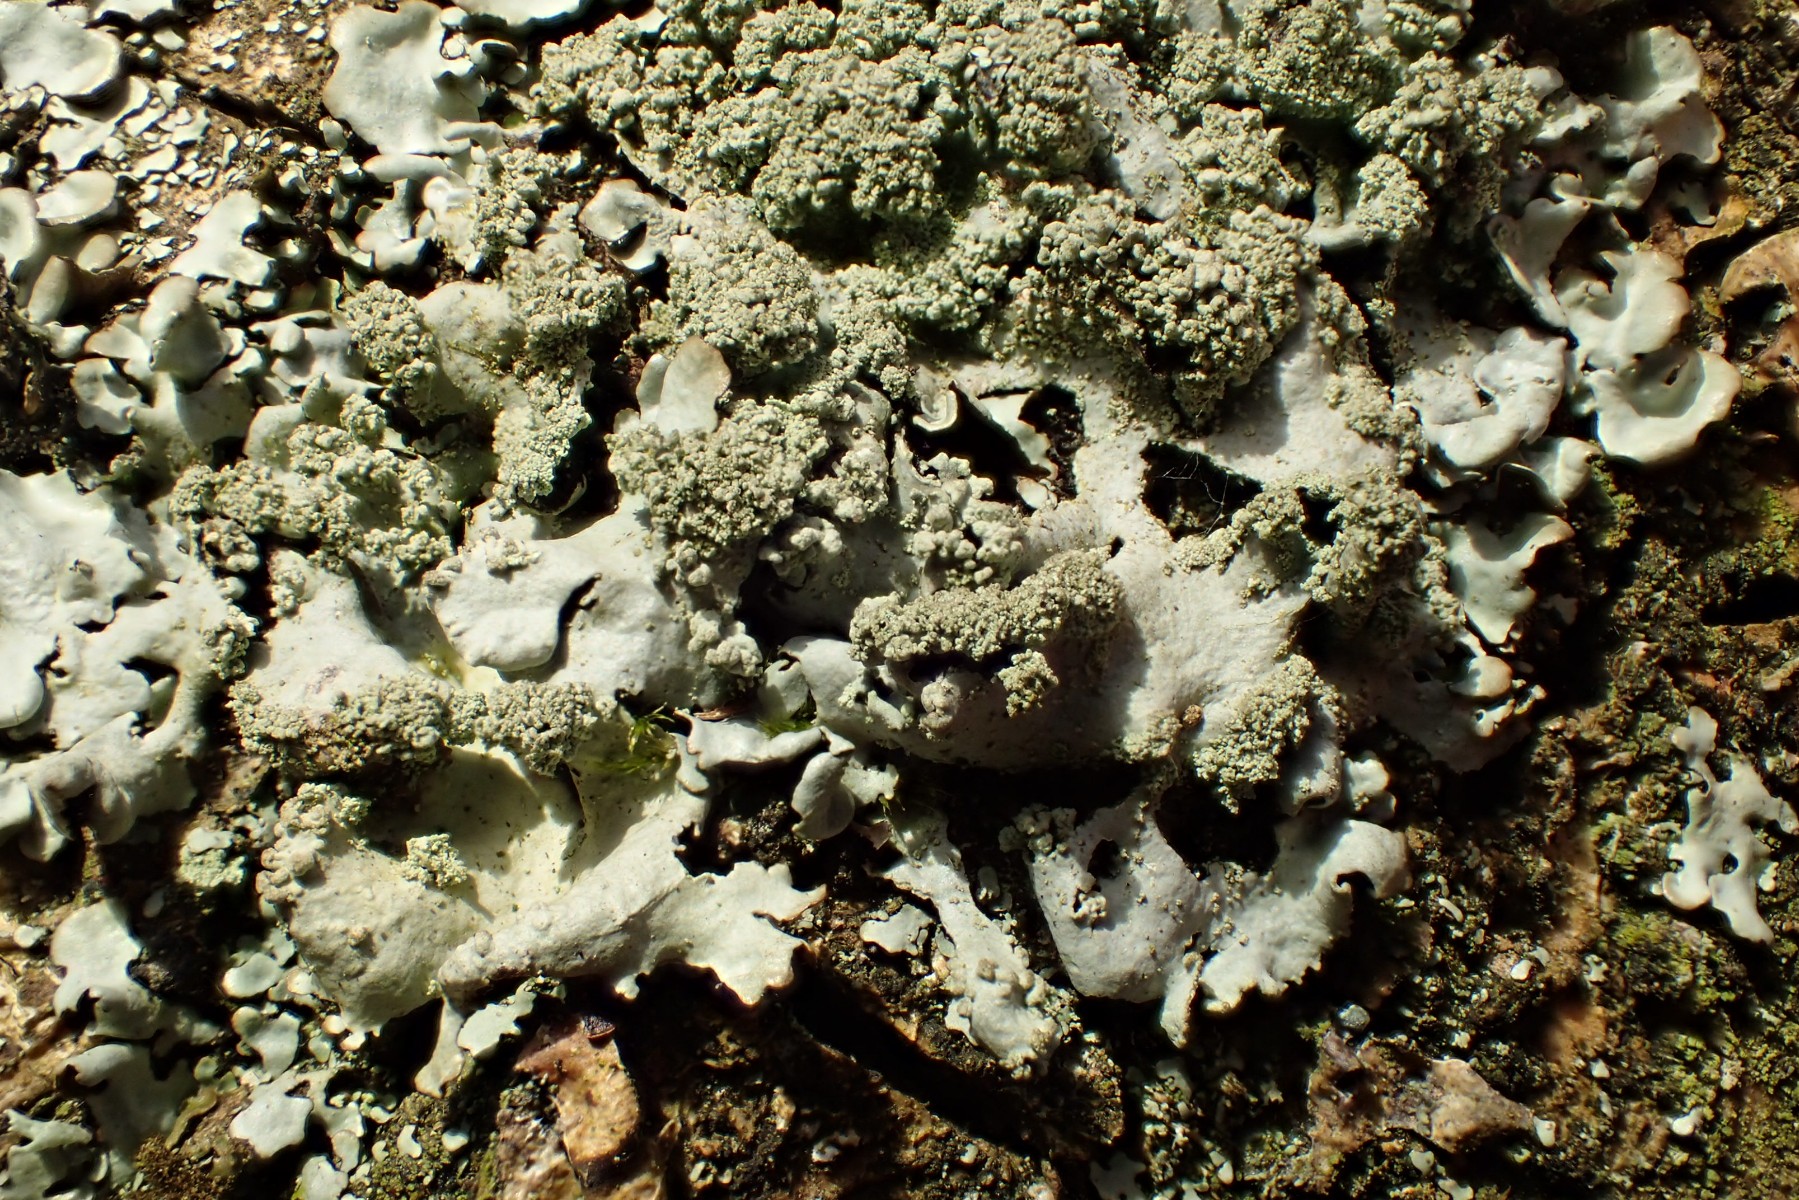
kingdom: Fungi
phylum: Ascomycota
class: Lecanoromycetes
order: Lecanorales
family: Parmeliaceae
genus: Hypotrachyna
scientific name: Hypotrachyna afrorevoluta
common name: kyst-skållav
